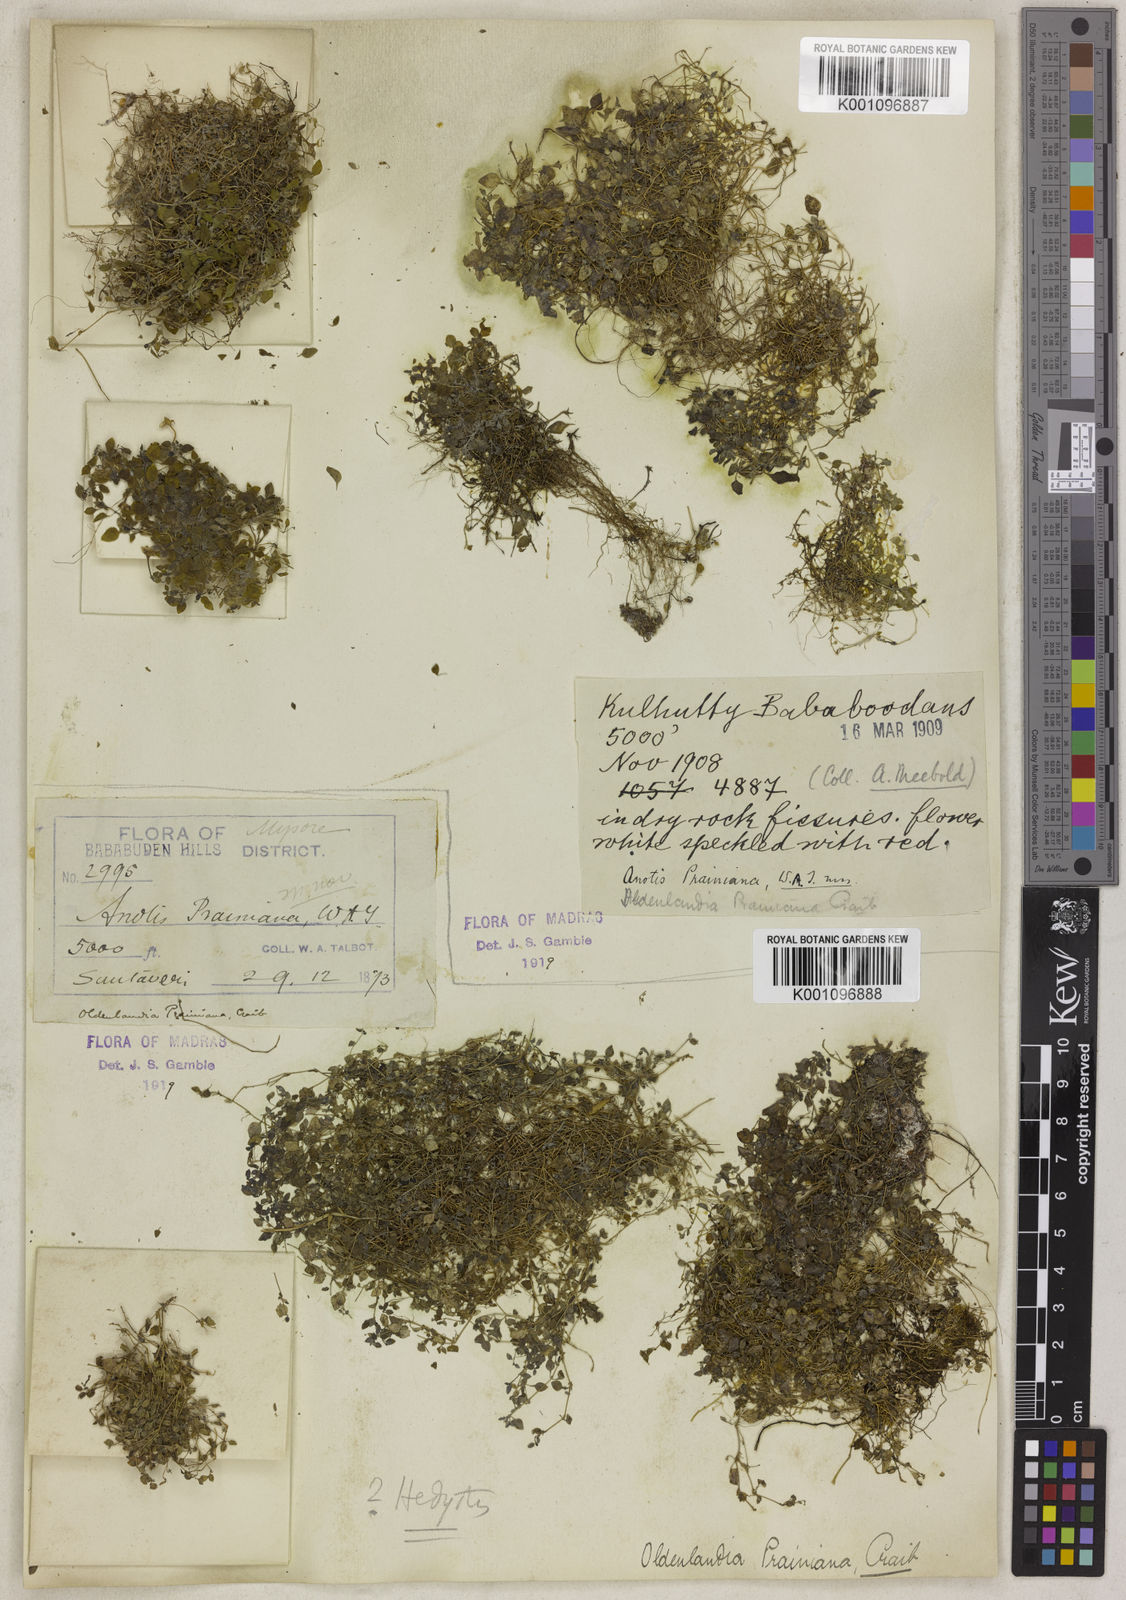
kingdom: Plantae
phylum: Tracheophyta
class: Magnoliopsida
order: Gentianales
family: Rubiaceae
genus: Neanotis
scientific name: Neanotis prainiana
